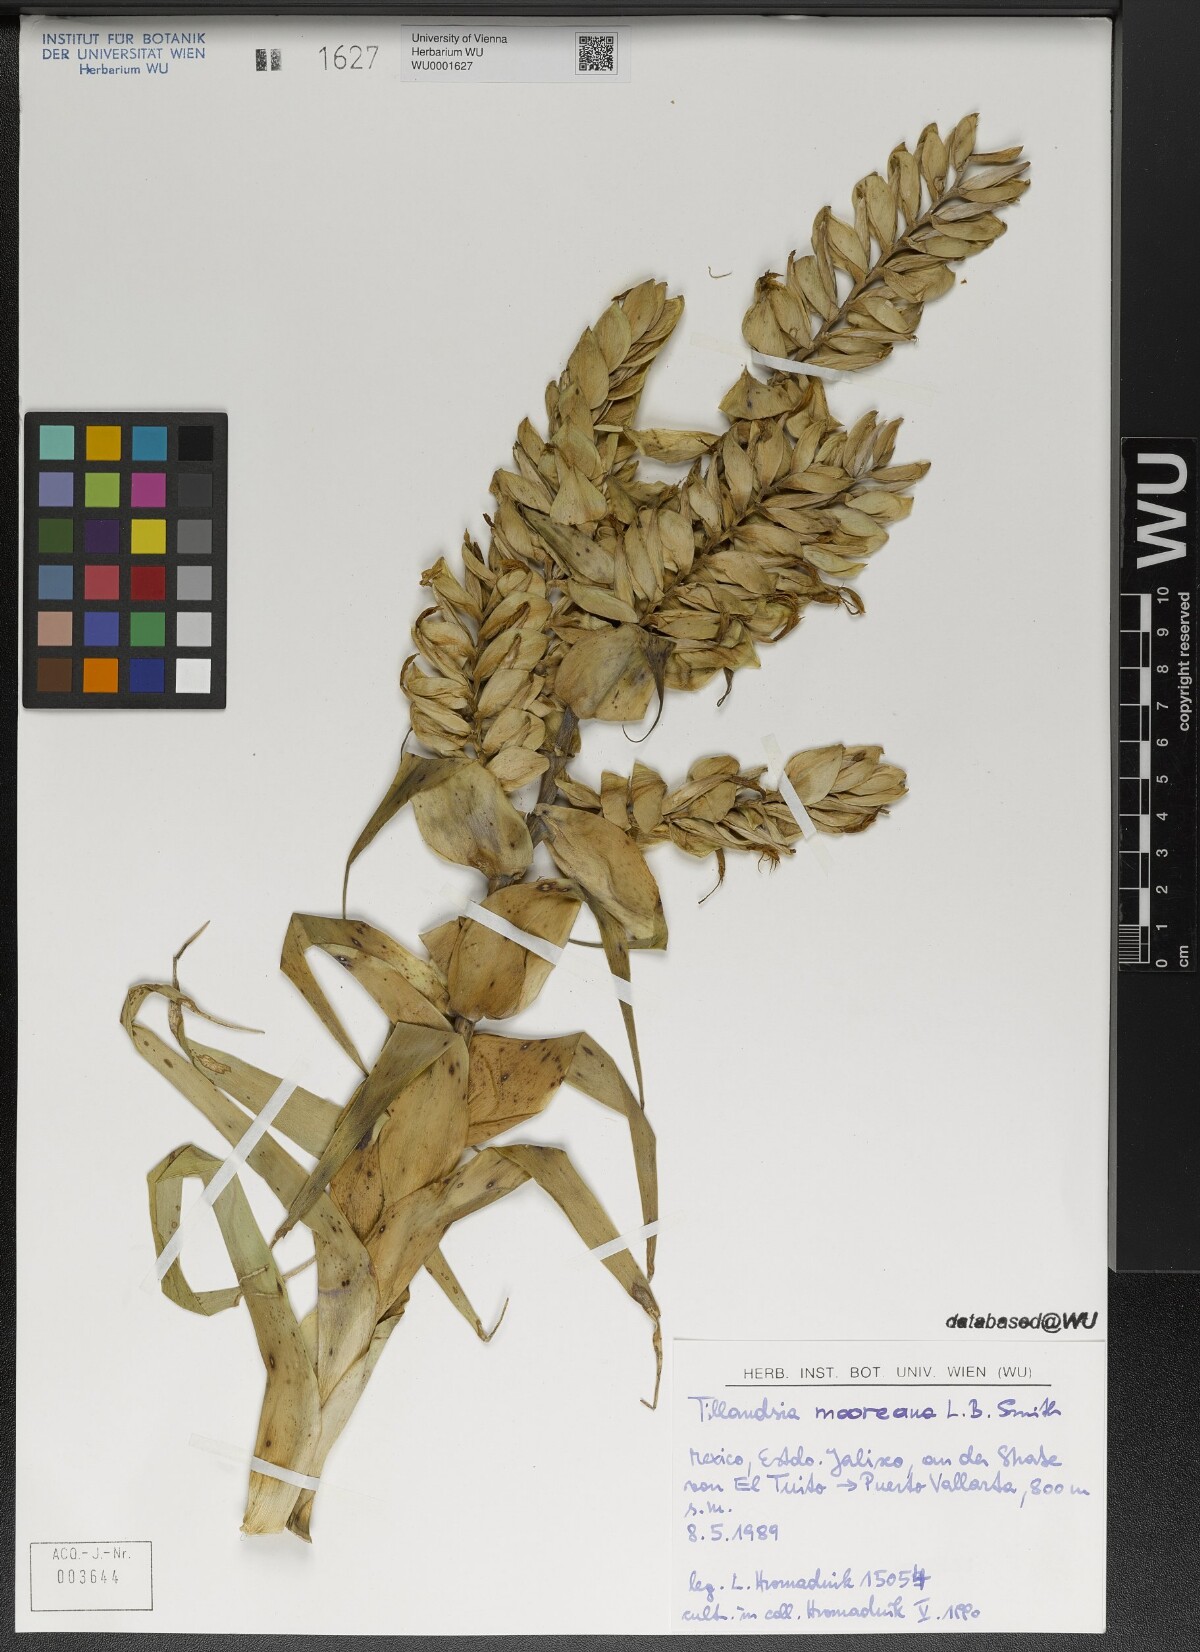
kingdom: Plantae
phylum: Tracheophyta
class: Liliopsida
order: Poales
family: Bromeliaceae
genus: Tillandsia
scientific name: Tillandsia mooreana
